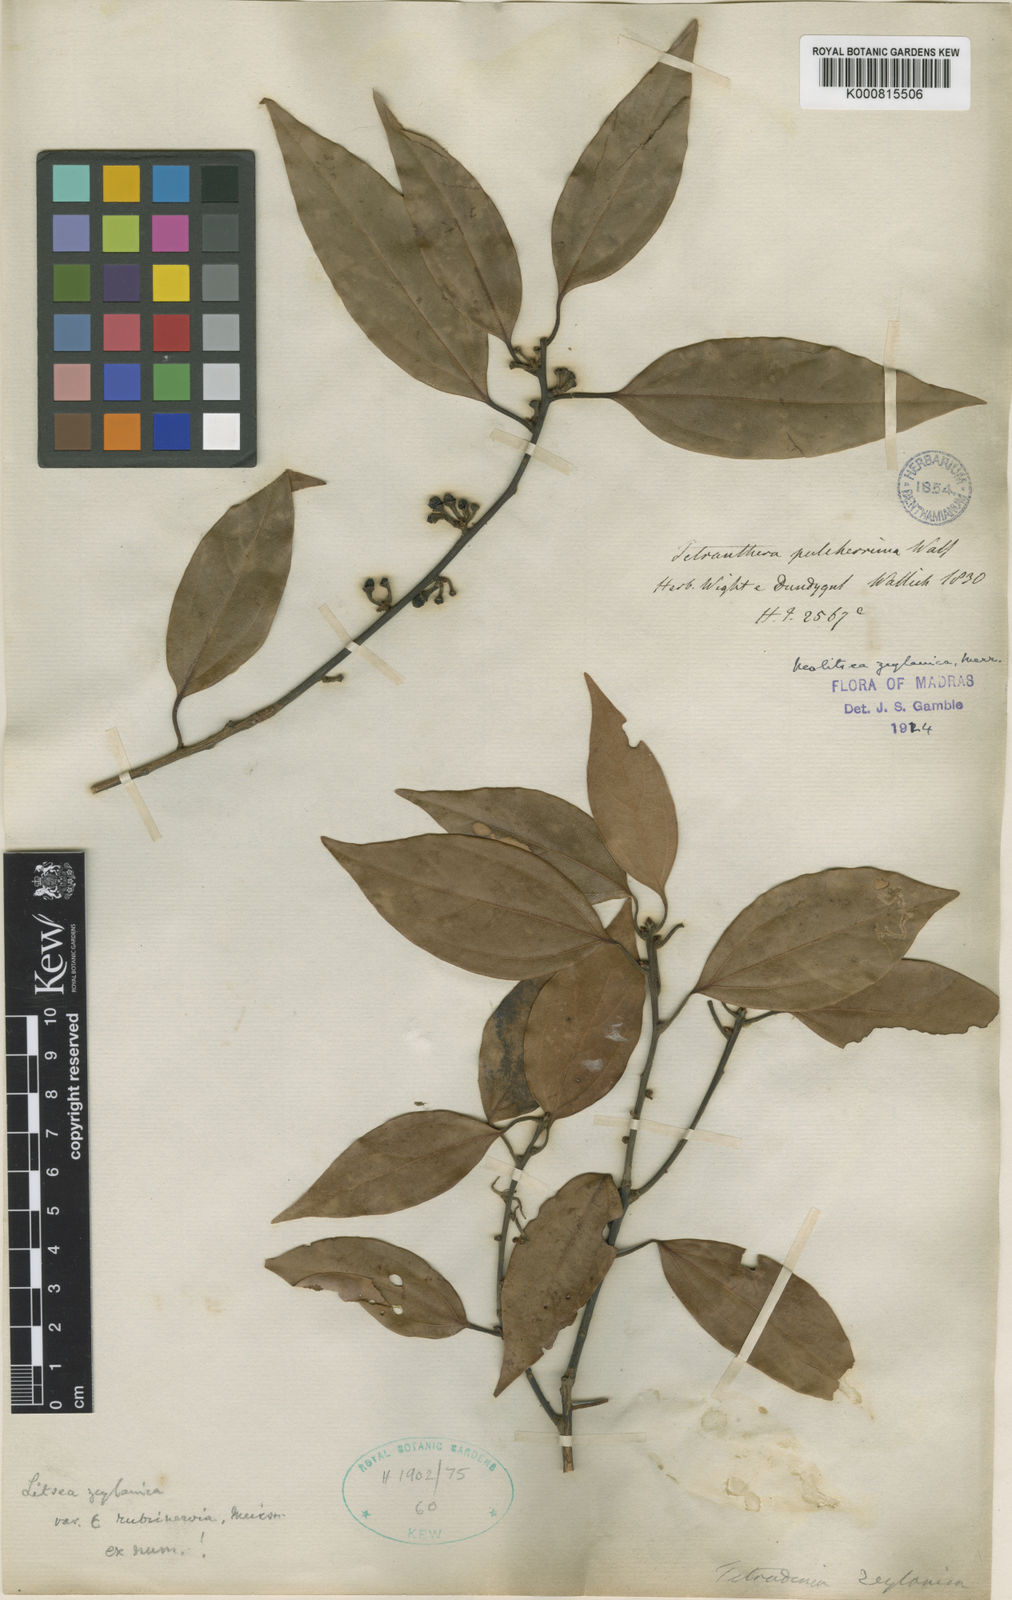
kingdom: Plantae
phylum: Tracheophyta
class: Magnoliopsida
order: Laurales
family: Lauraceae
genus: Neolitsea
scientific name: Neolitsea
